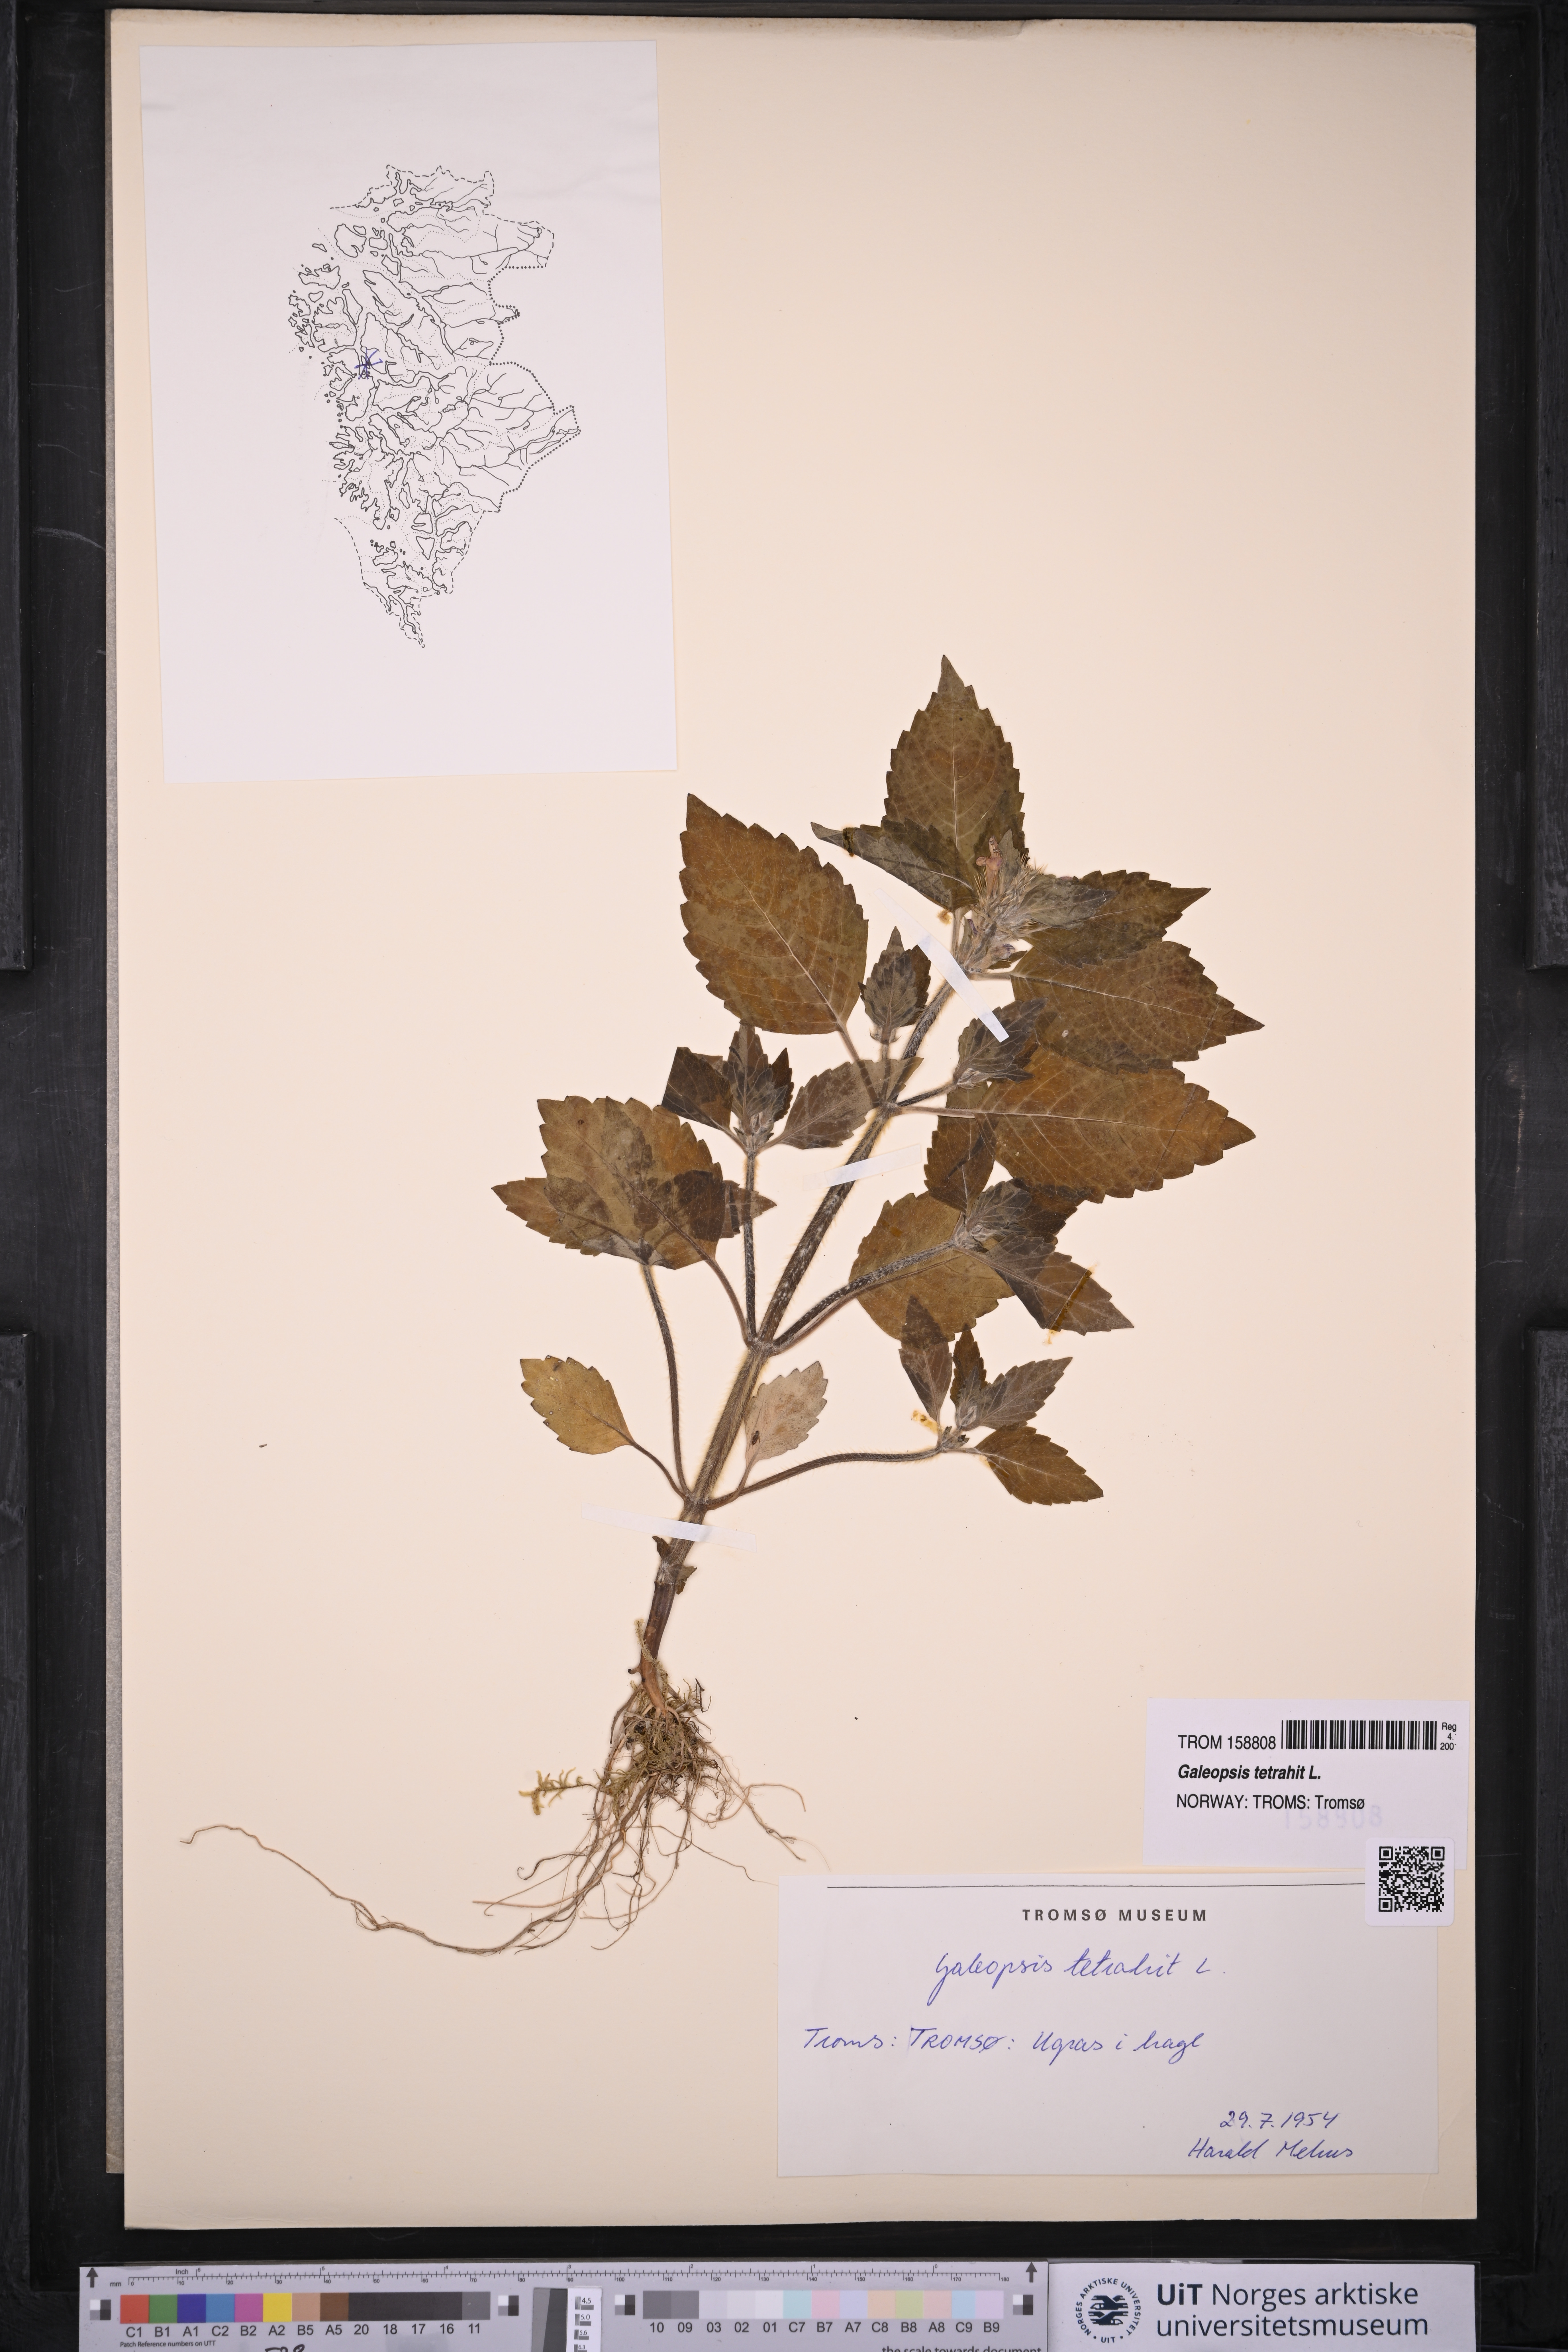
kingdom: Plantae
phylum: Tracheophyta
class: Magnoliopsida
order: Lamiales
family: Lamiaceae
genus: Galeopsis
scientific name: Galeopsis tetrahit
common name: Common hemp-nettle
